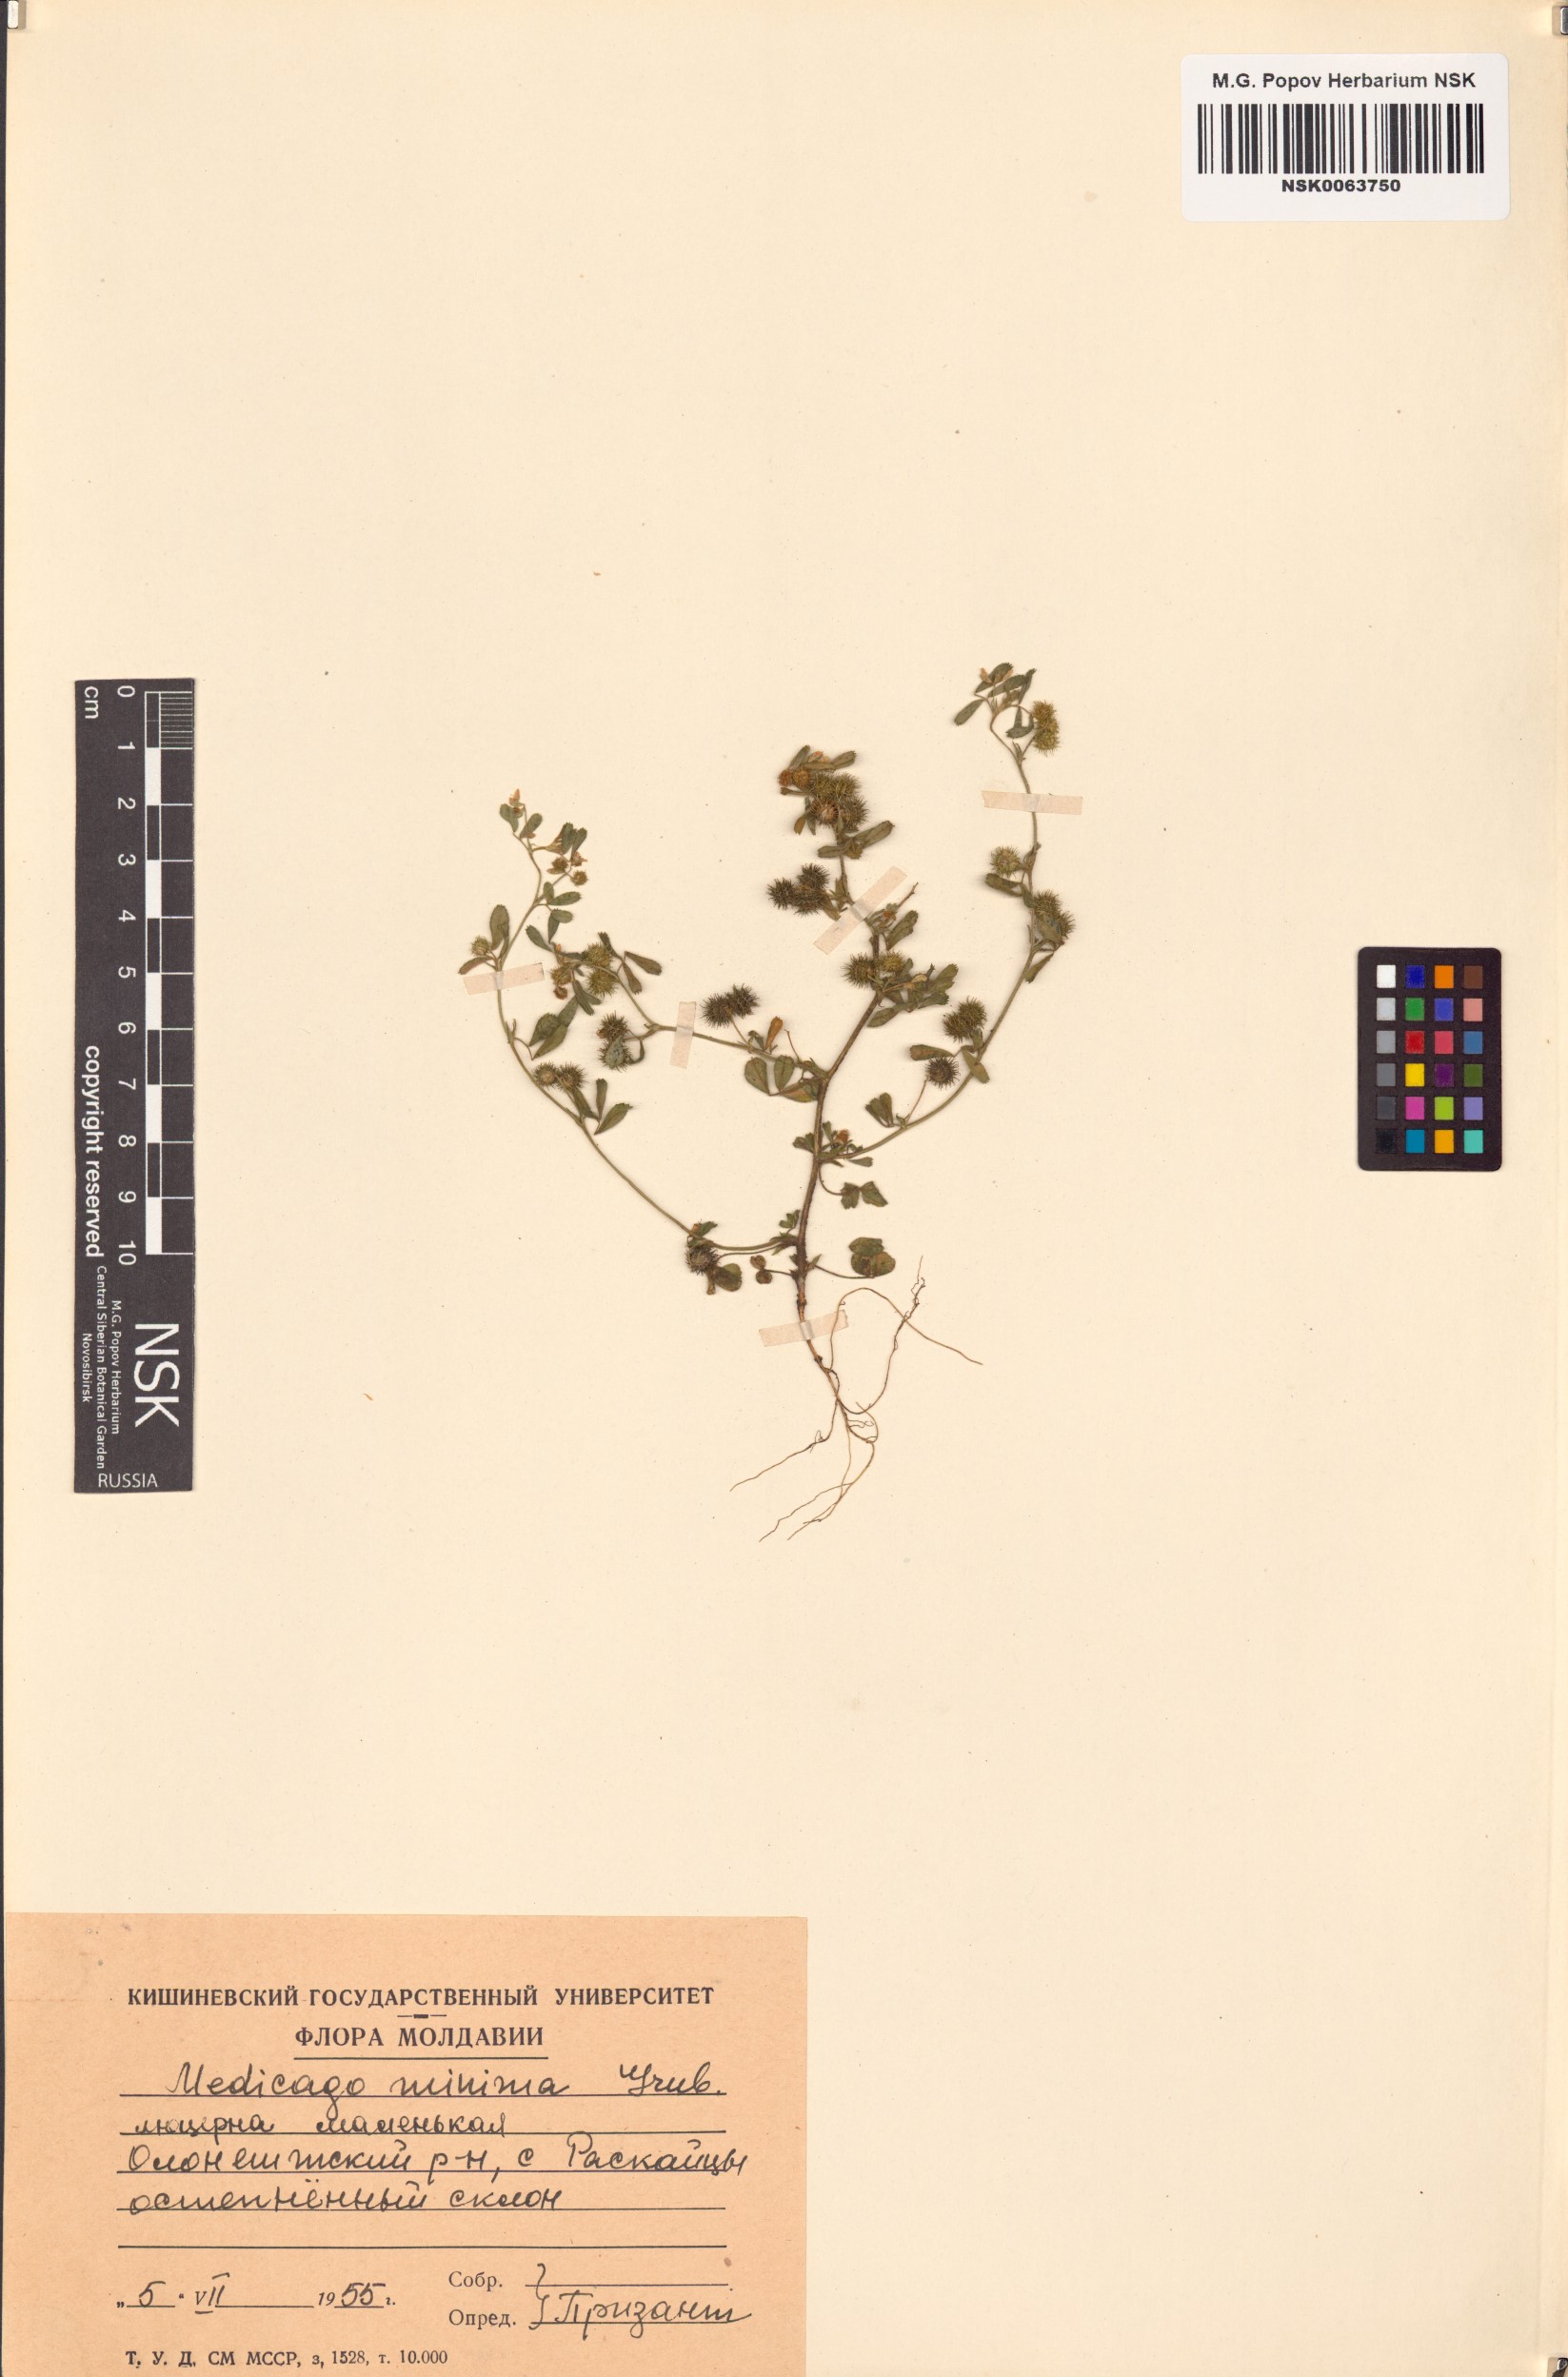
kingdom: Plantae
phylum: Tracheophyta
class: Magnoliopsida
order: Fabales
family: Fabaceae
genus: Medicago
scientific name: Medicago minima
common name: Little bur-clover
